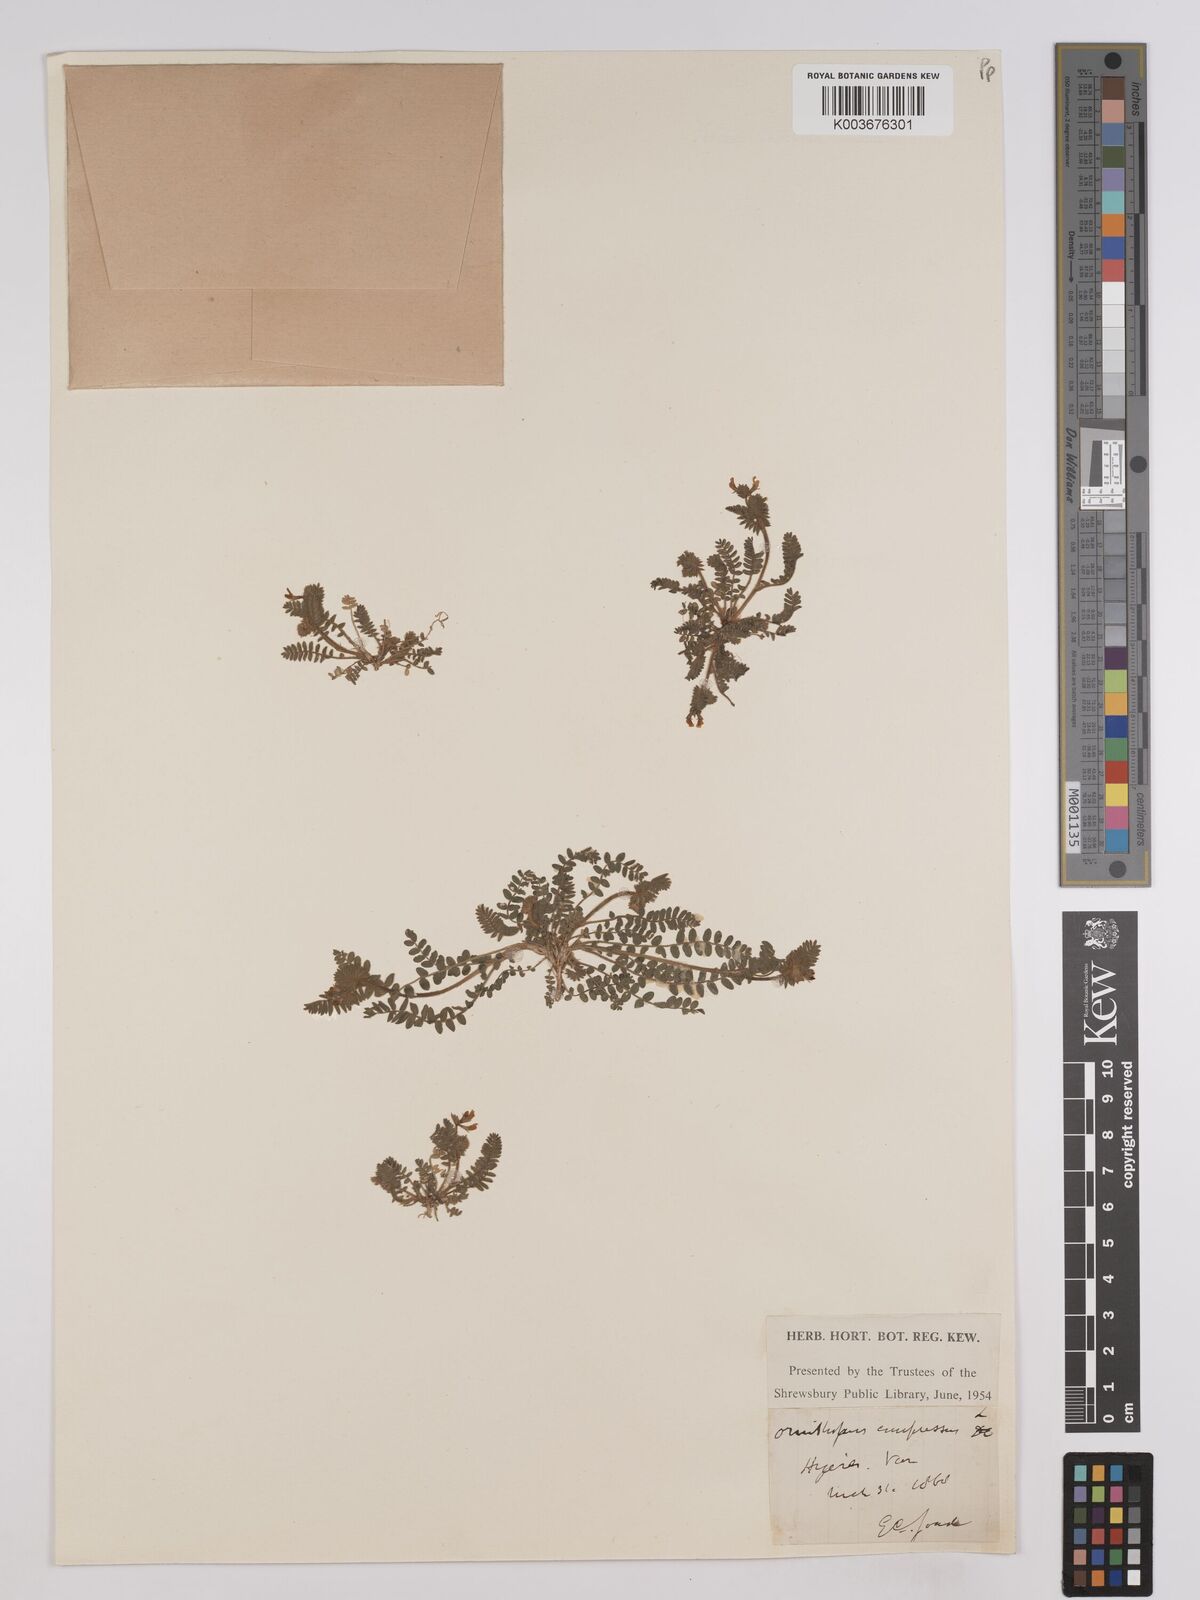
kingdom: Plantae
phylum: Tracheophyta
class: Magnoliopsida
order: Fabales
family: Fabaceae
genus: Ornithopus
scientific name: Ornithopus compressus
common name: Yellow serradella
